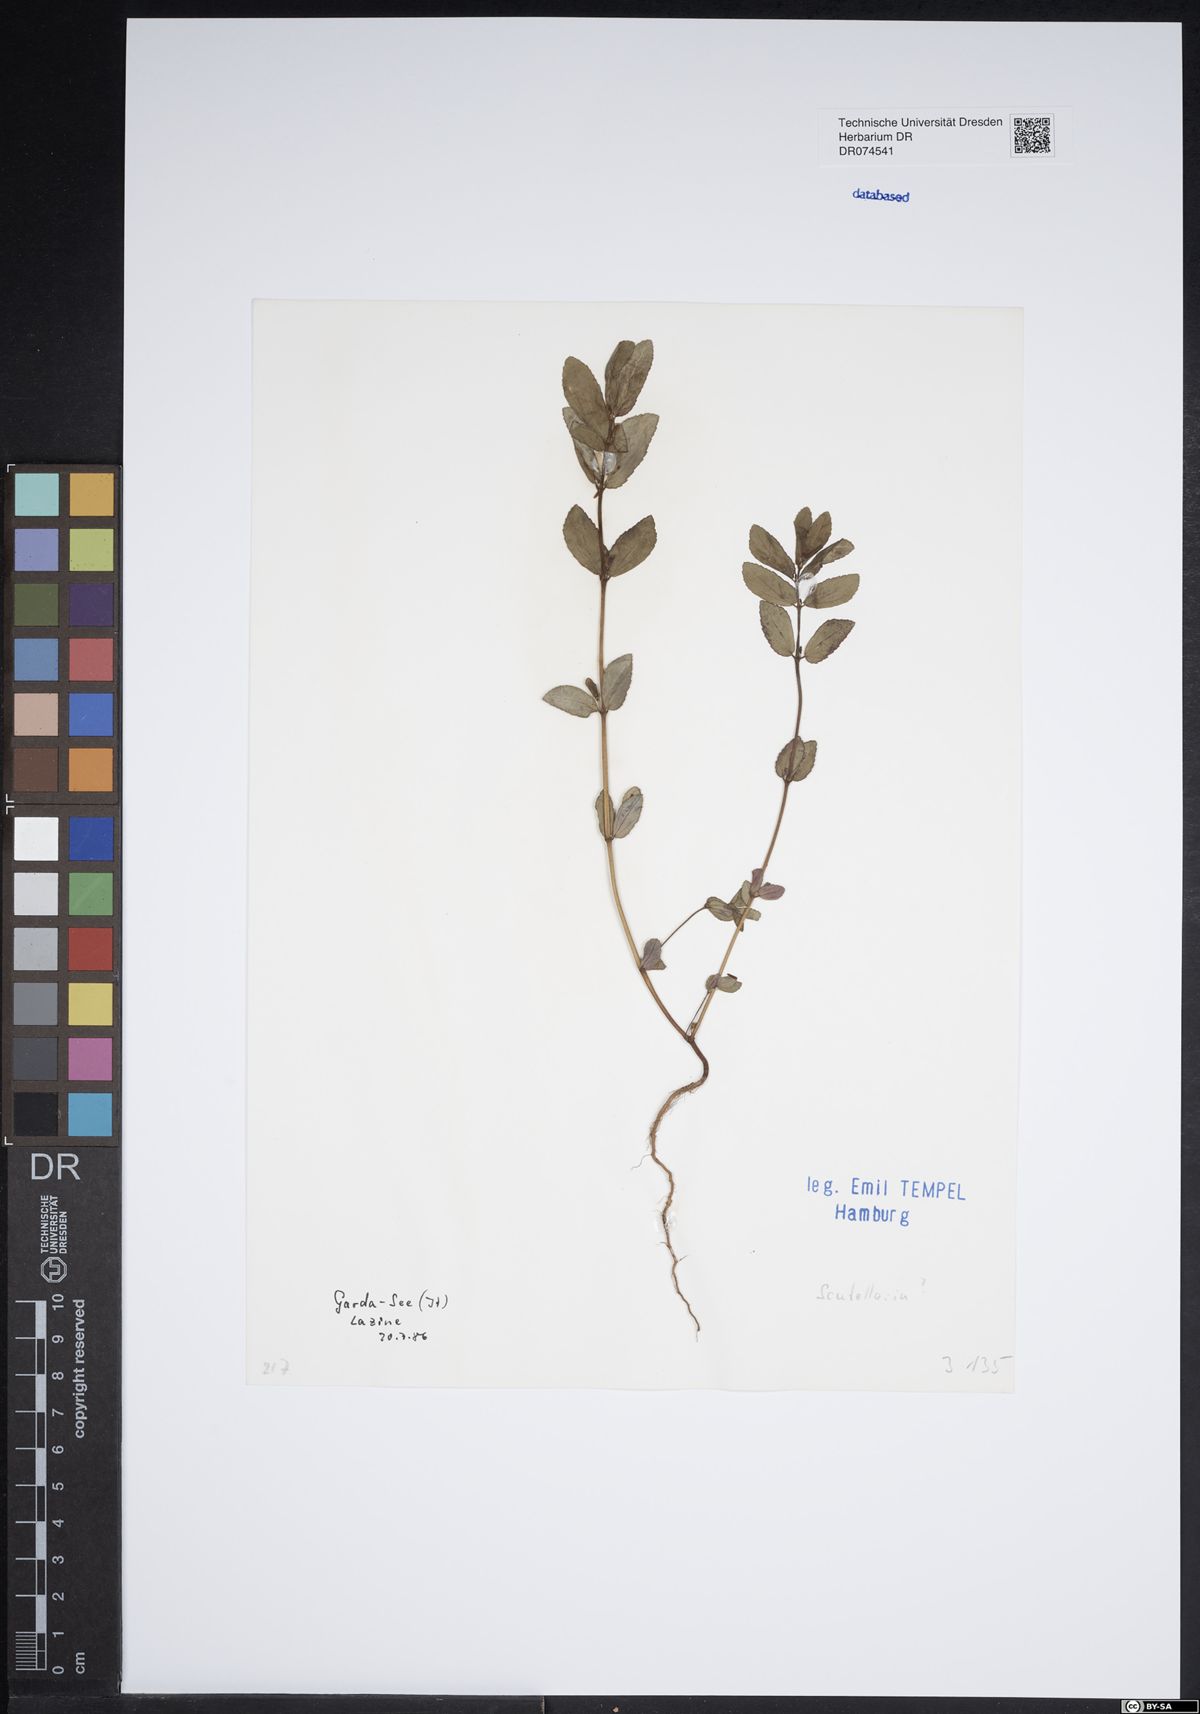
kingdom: Plantae
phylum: Tracheophyta
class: Magnoliopsida
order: Lamiales
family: Lamiaceae
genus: Scutellaria
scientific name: Scutellaria
